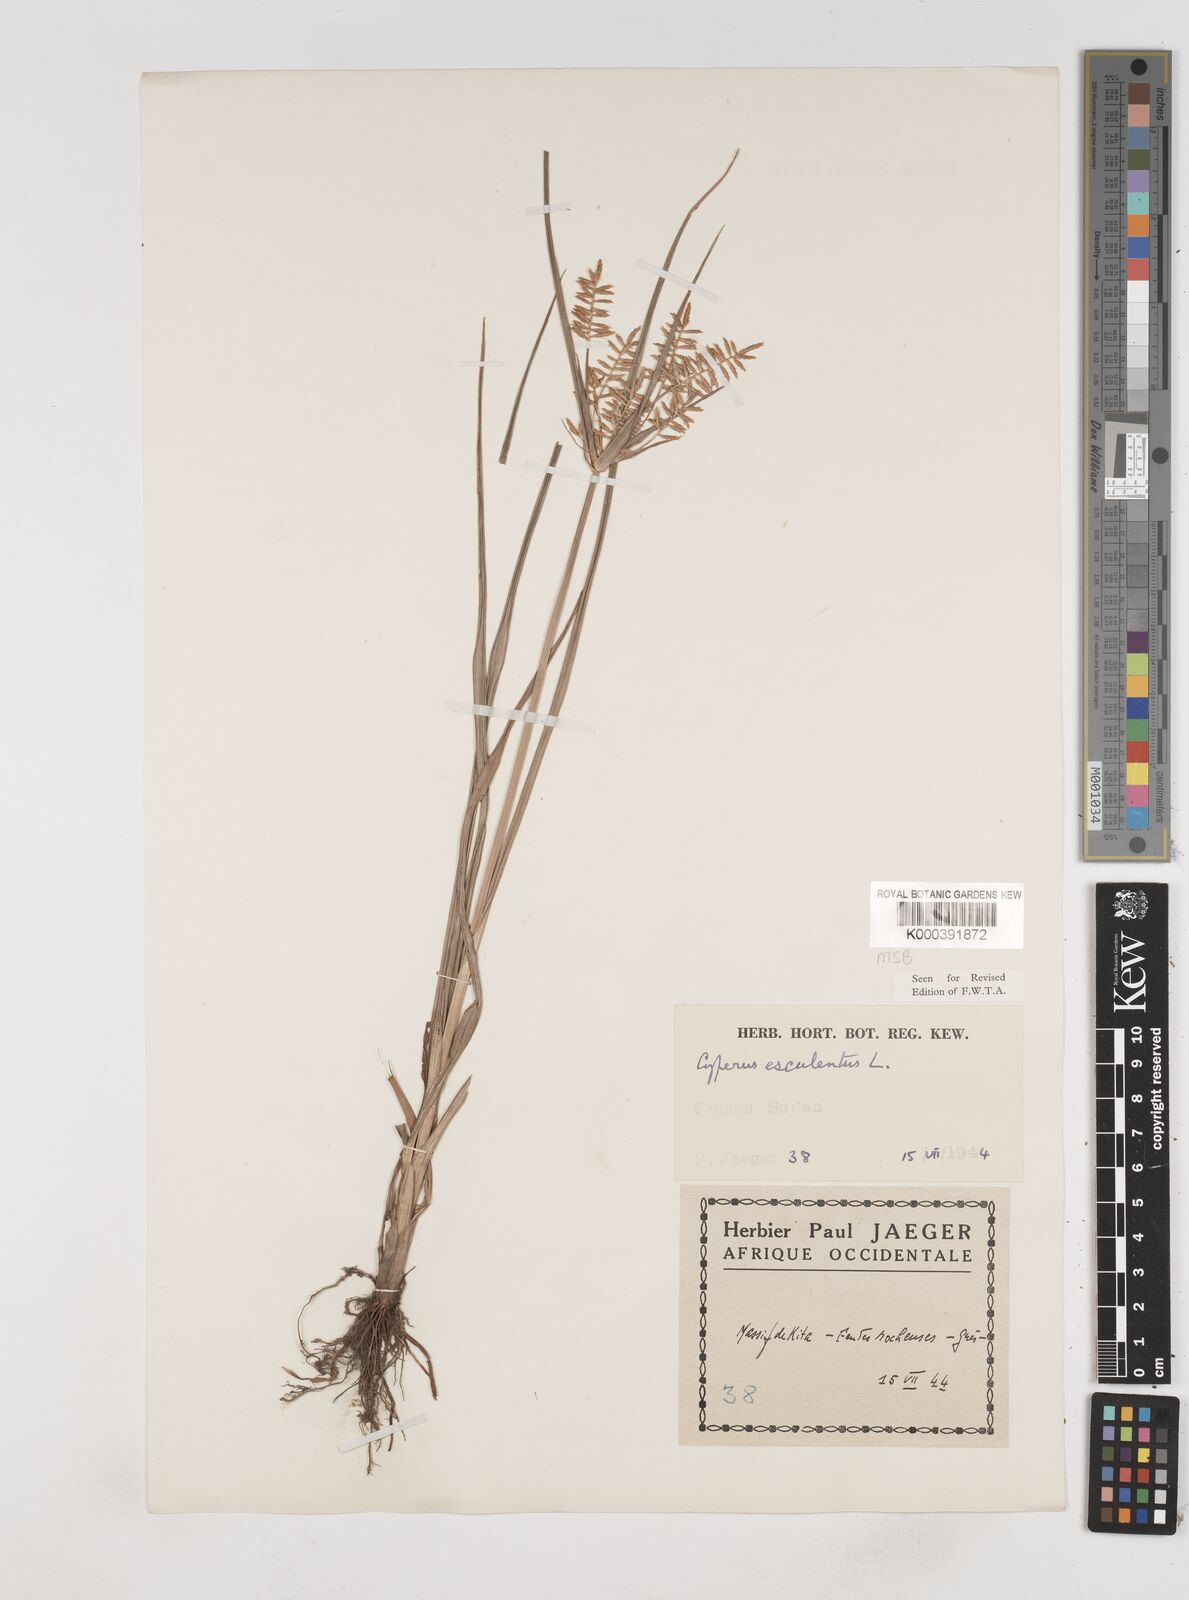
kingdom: Plantae
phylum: Tracheophyta
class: Liliopsida
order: Poales
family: Cyperaceae
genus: Cyperus
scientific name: Cyperus esculentus
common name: Yellow nutsedge
